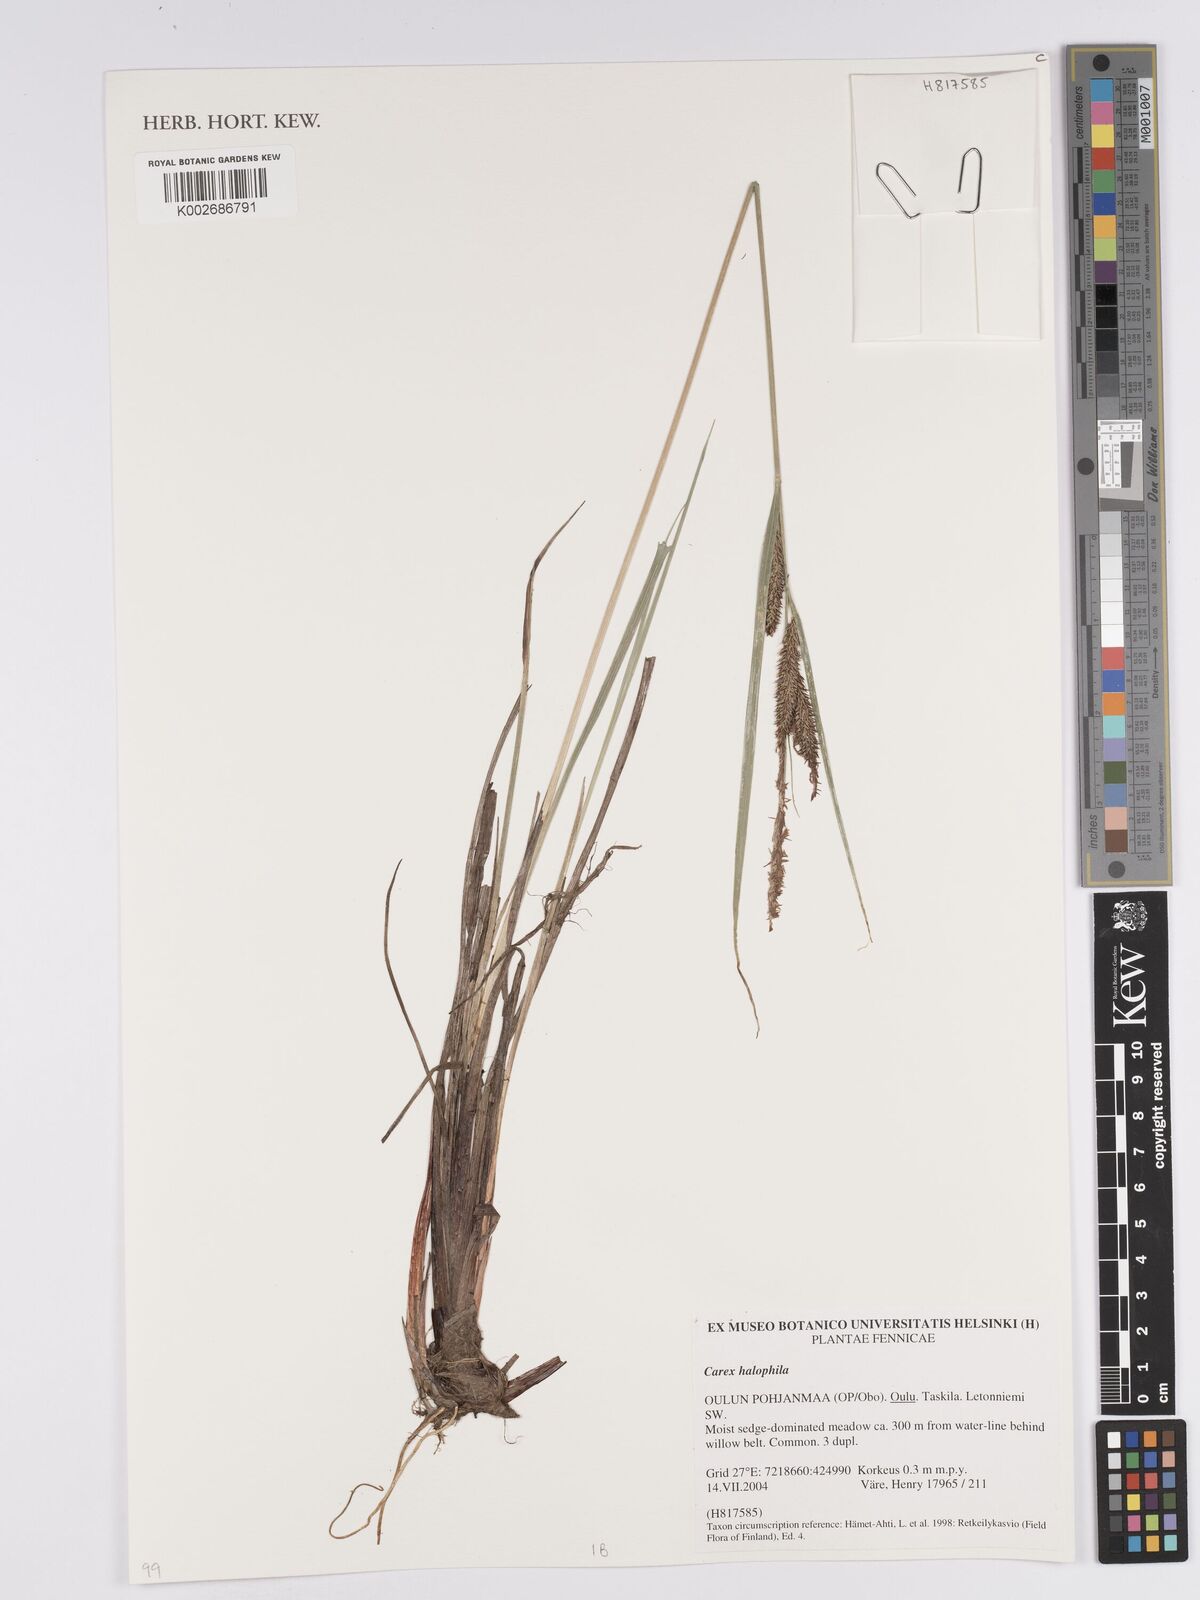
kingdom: Plantae
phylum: Tracheophyta
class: Liliopsida
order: Poales
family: Cyperaceae
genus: Carex
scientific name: Carex aquatilis
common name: Water sedge
